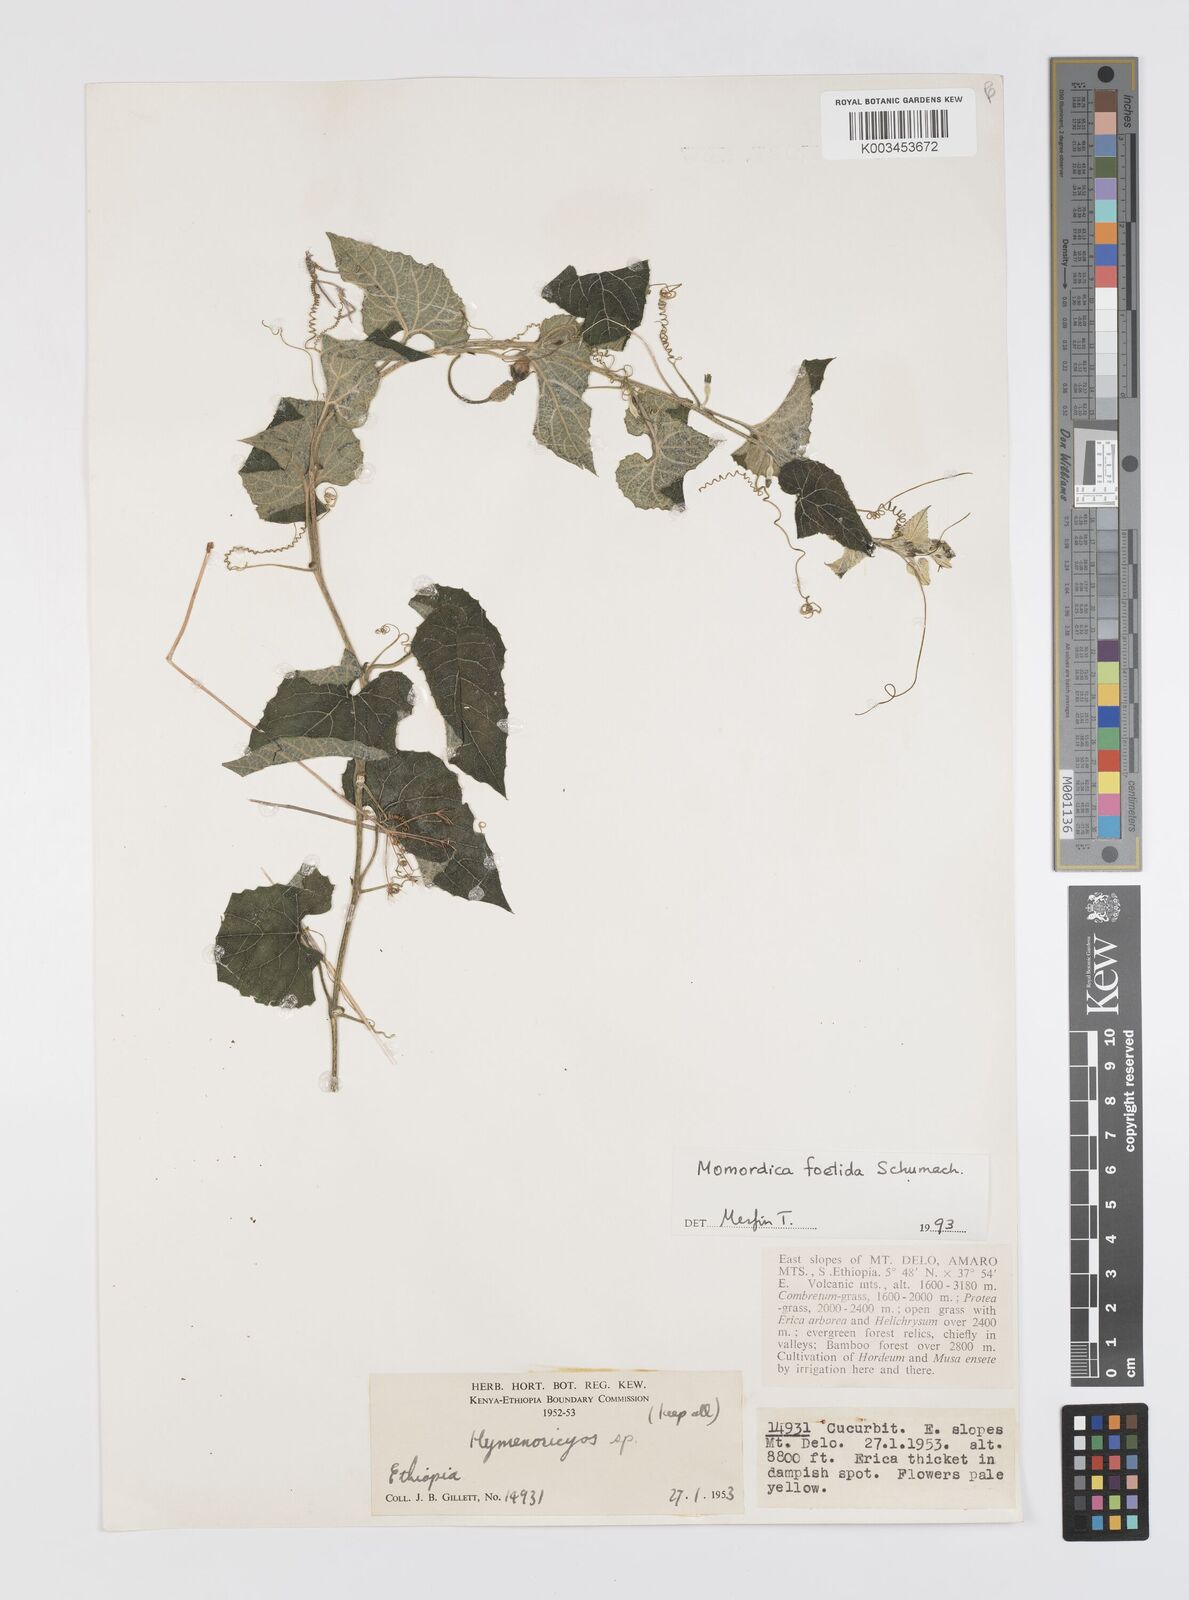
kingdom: Plantae
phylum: Tracheophyta
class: Magnoliopsida
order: Cucurbitales
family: Cucurbitaceae
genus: Momordica
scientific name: Momordica foetida
